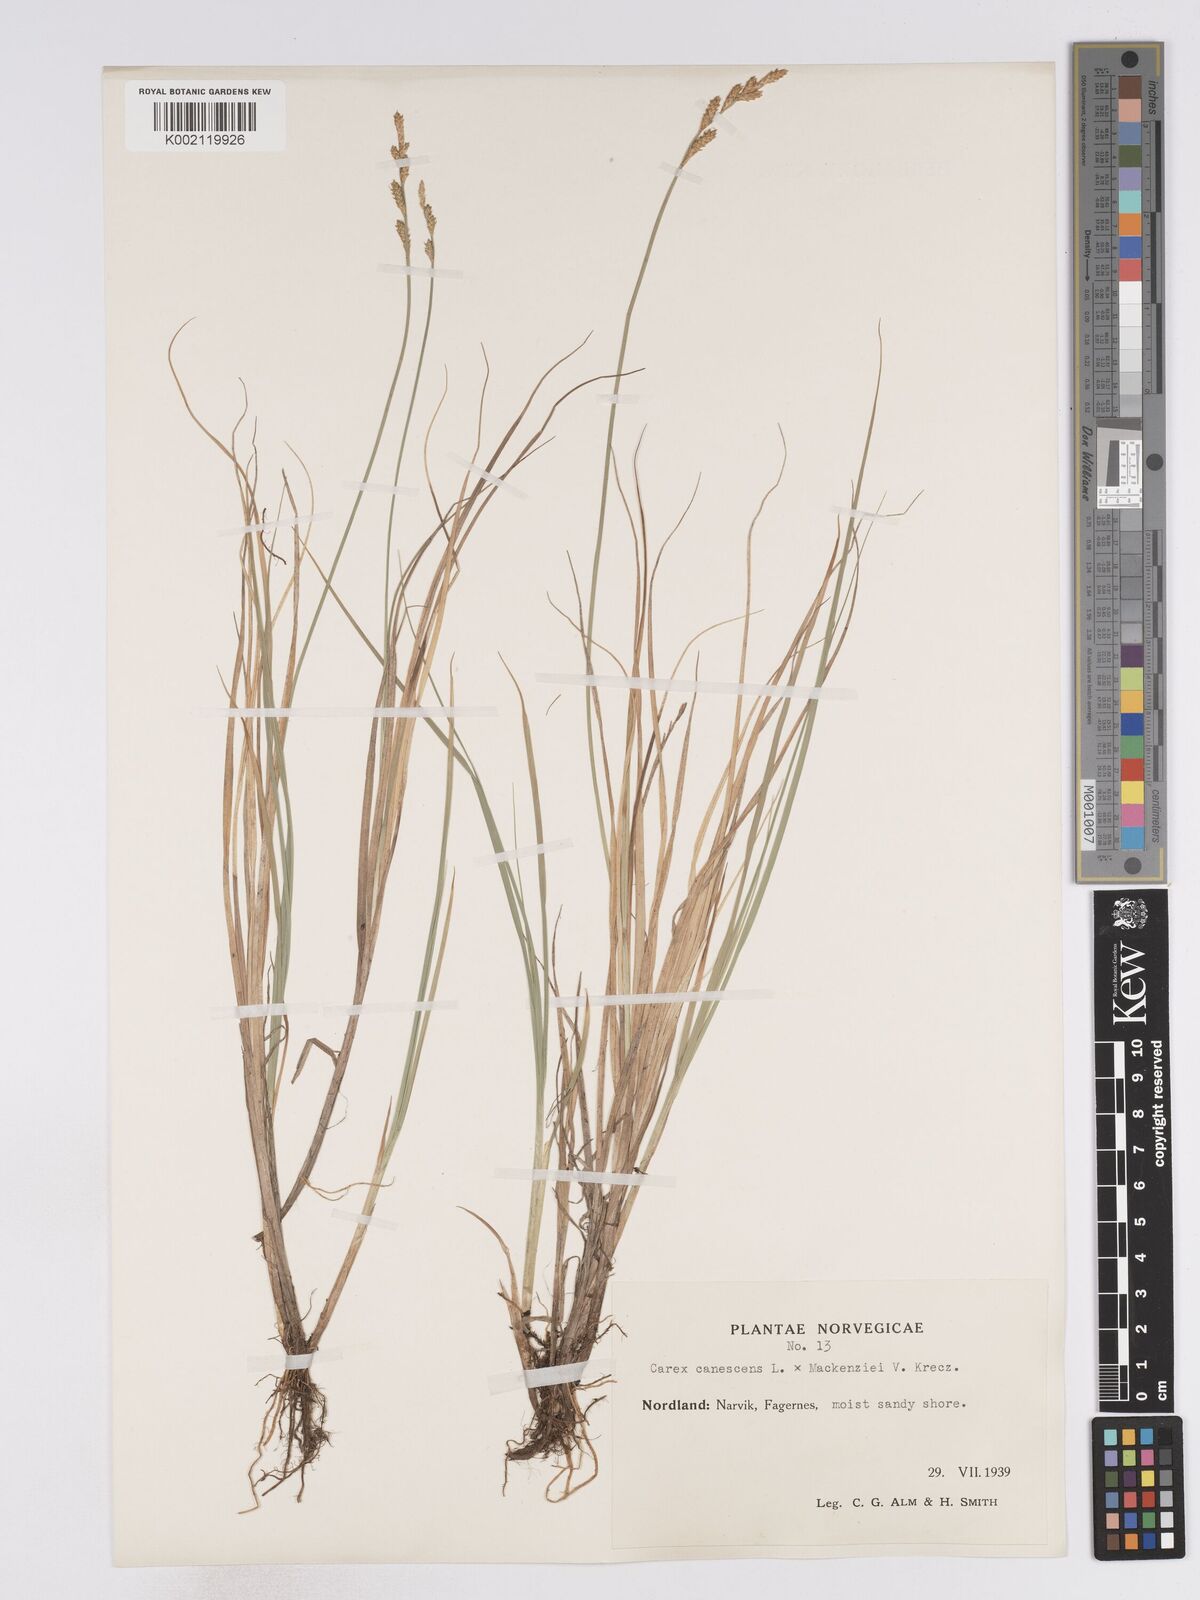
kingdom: Plantae
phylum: Tracheophyta
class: Liliopsida
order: Poales
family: Cyperaceae
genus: Carex
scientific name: Carex curta
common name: White sedge
